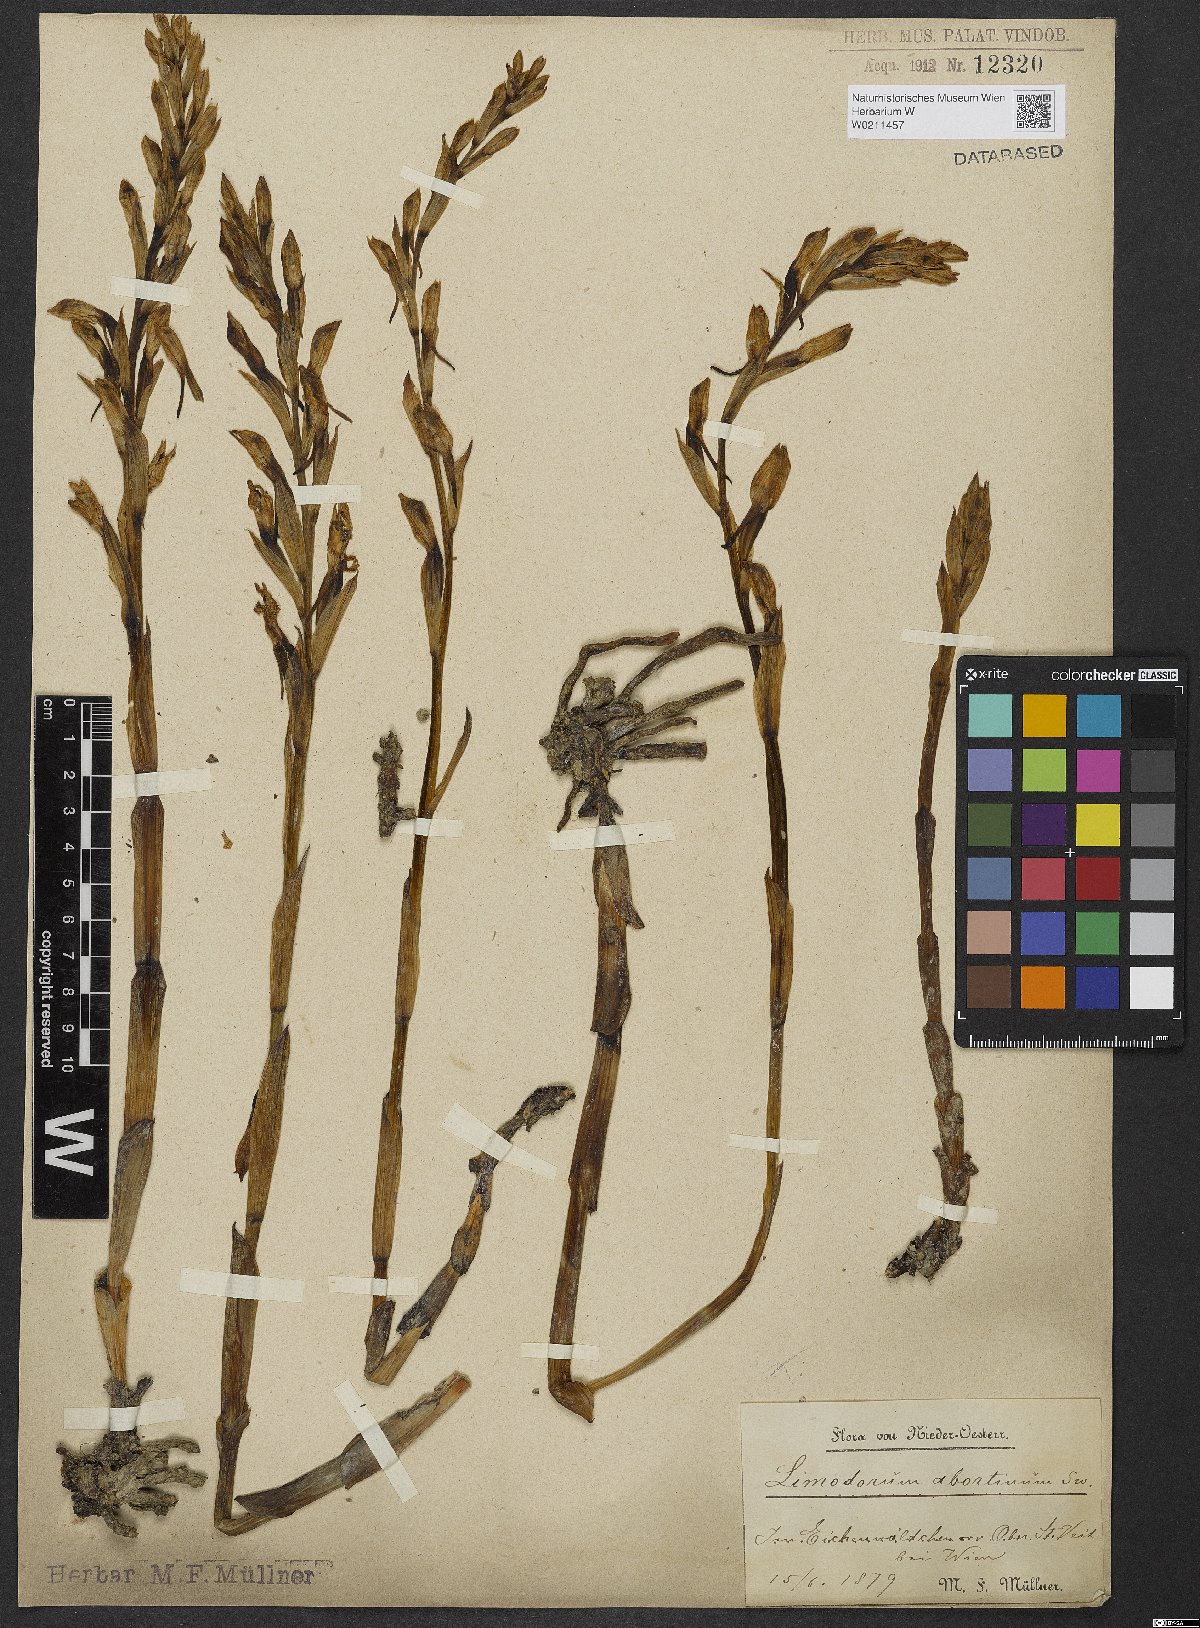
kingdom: Plantae
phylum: Tracheophyta
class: Liliopsida
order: Asparagales
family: Orchidaceae
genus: Limodorum
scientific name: Limodorum abortivum
